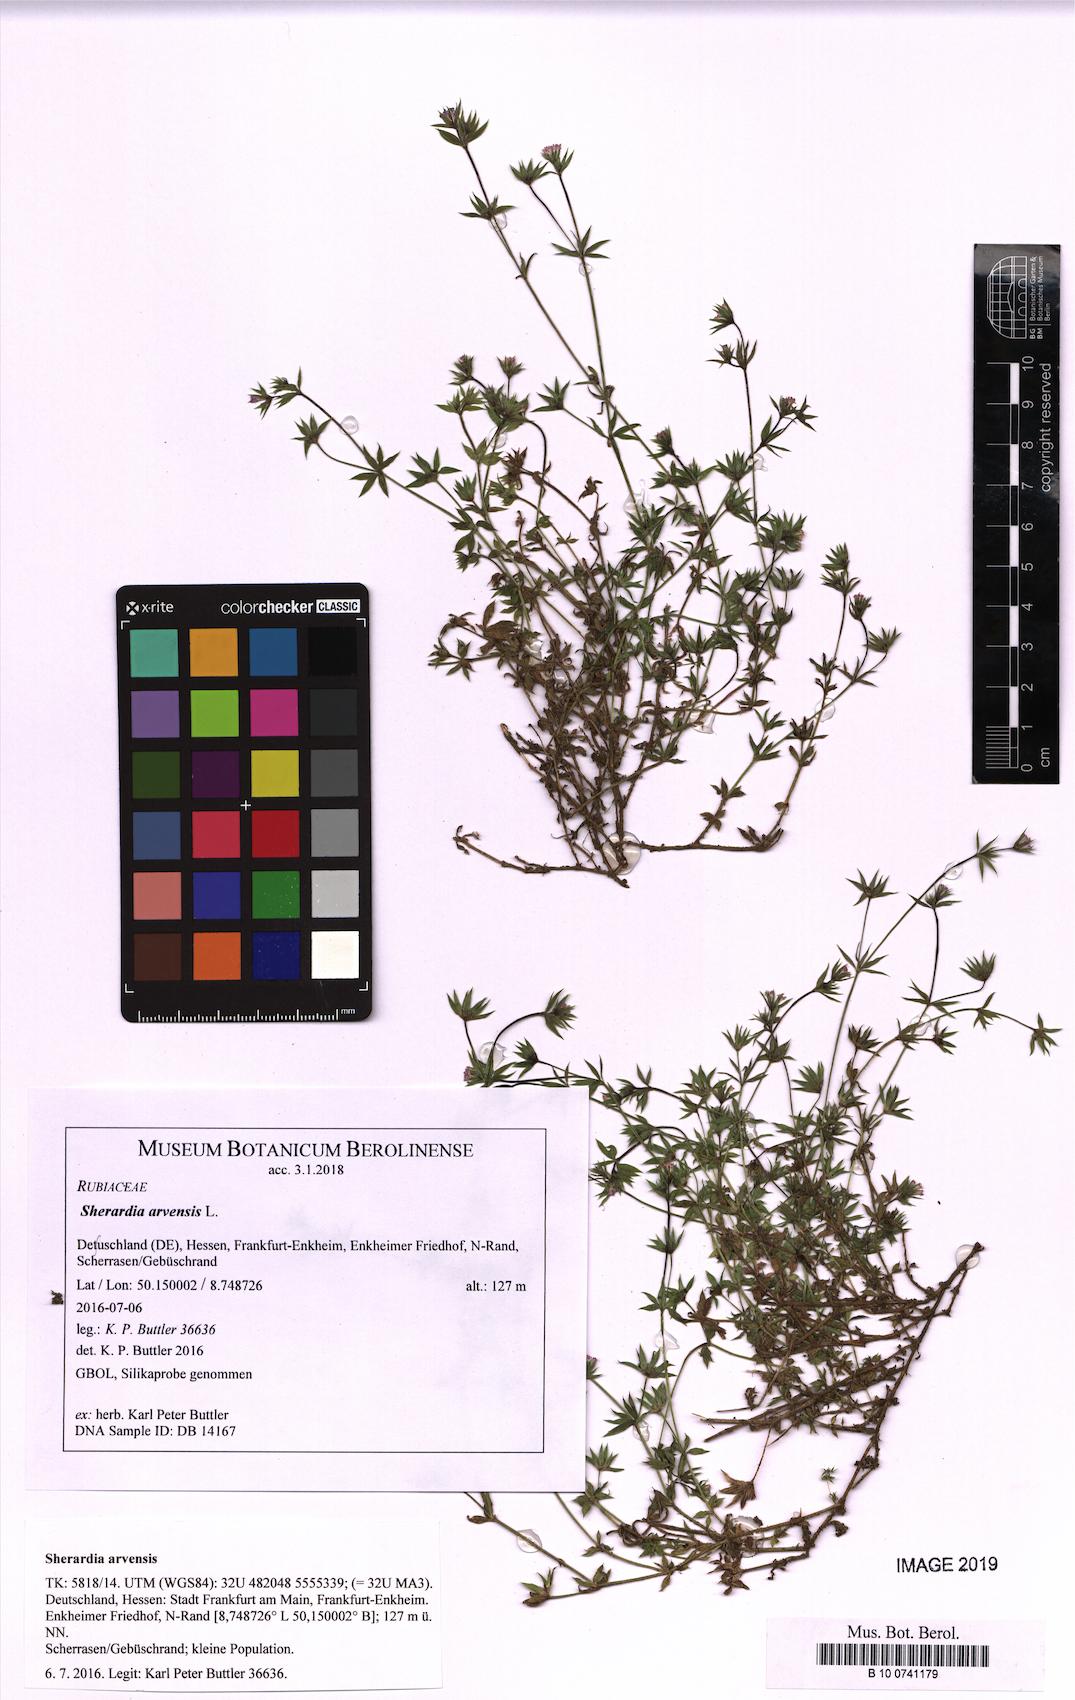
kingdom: Plantae
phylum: Tracheophyta
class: Magnoliopsida
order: Gentianales
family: Rubiaceae
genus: Sherardia
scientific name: Sherardia arvensis
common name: Field madder
